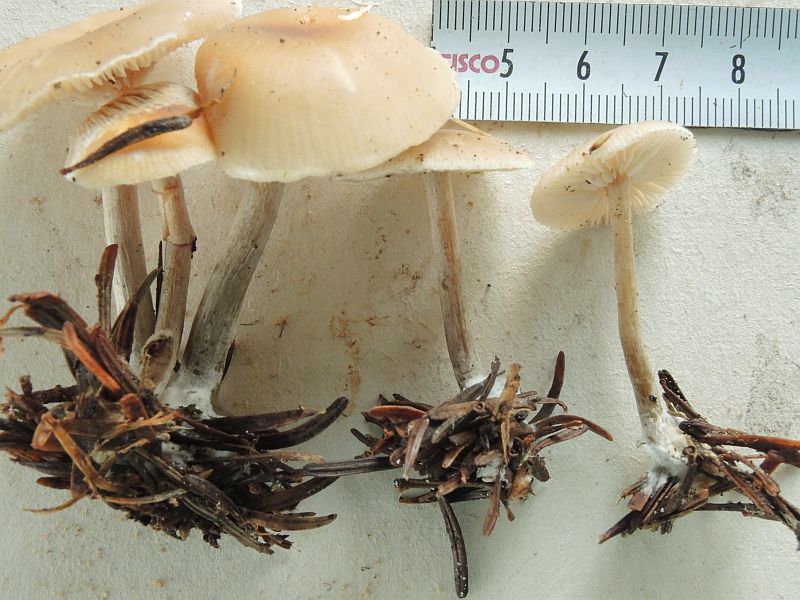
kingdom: Fungi
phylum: Basidiomycota
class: Agaricomycetes
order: Agaricales
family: Tricholomataceae
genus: Clitocybe
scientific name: Clitocybe metachroa
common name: grå tragthat
